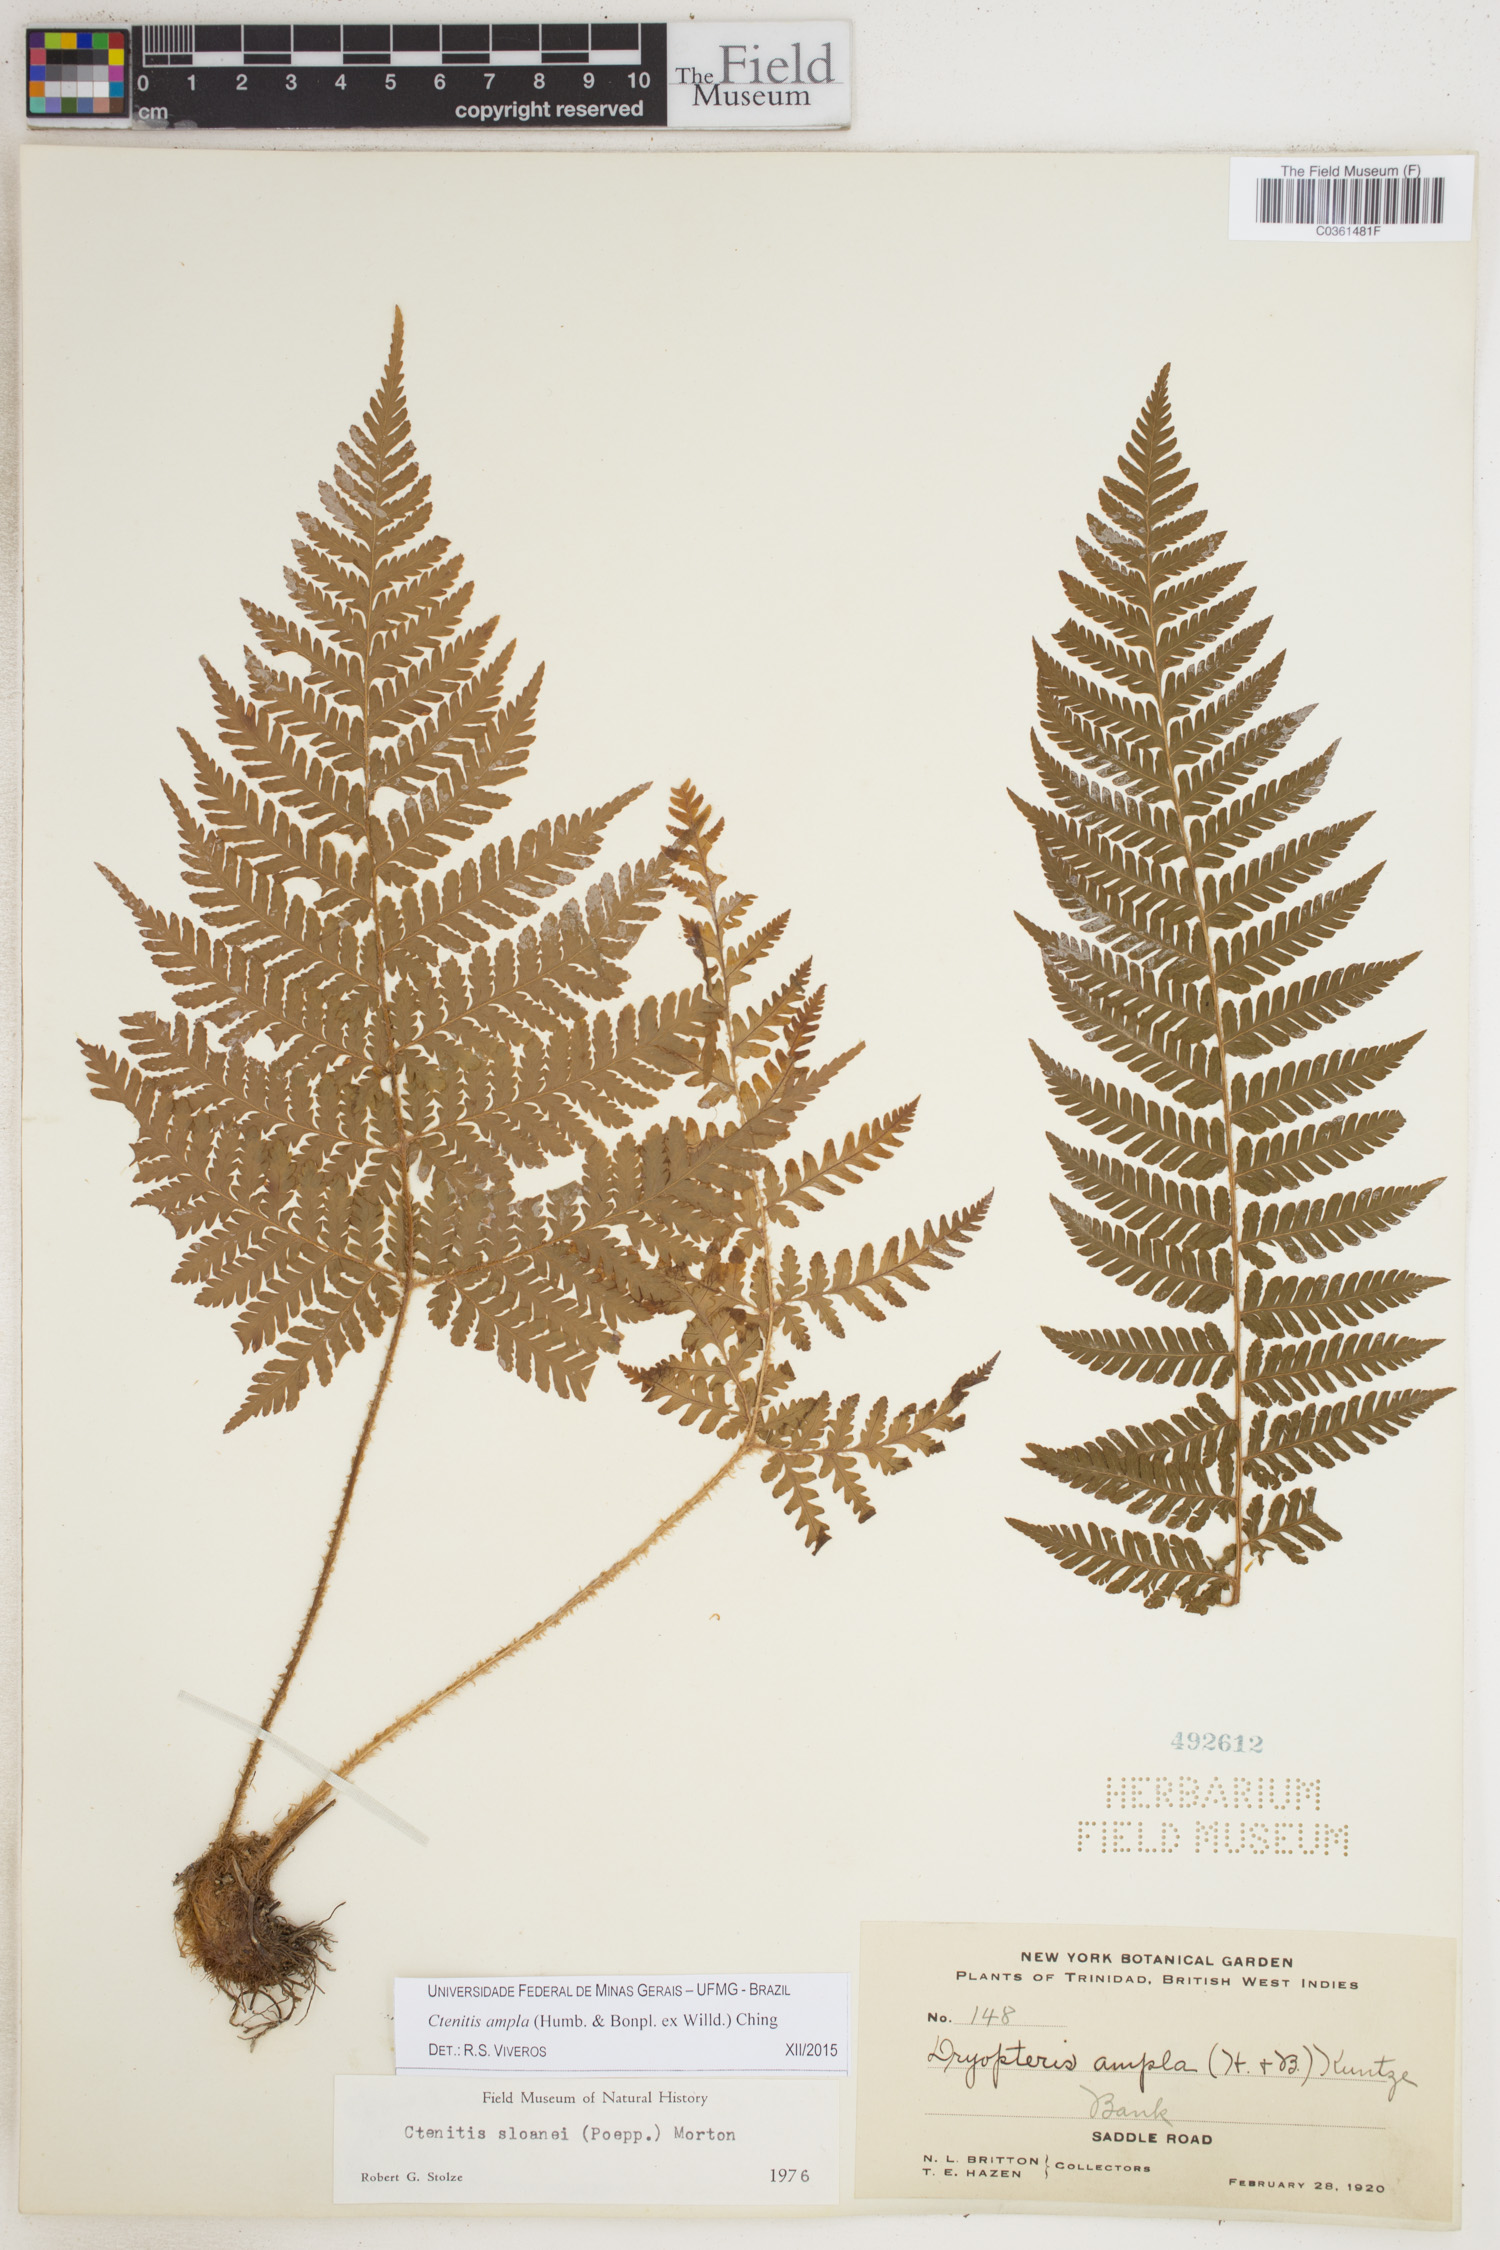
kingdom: Plantae
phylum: Tracheophyta
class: Polypodiopsida
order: Polypodiales
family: Dryopteridaceae
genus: Ctenitis
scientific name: Ctenitis sloanei
